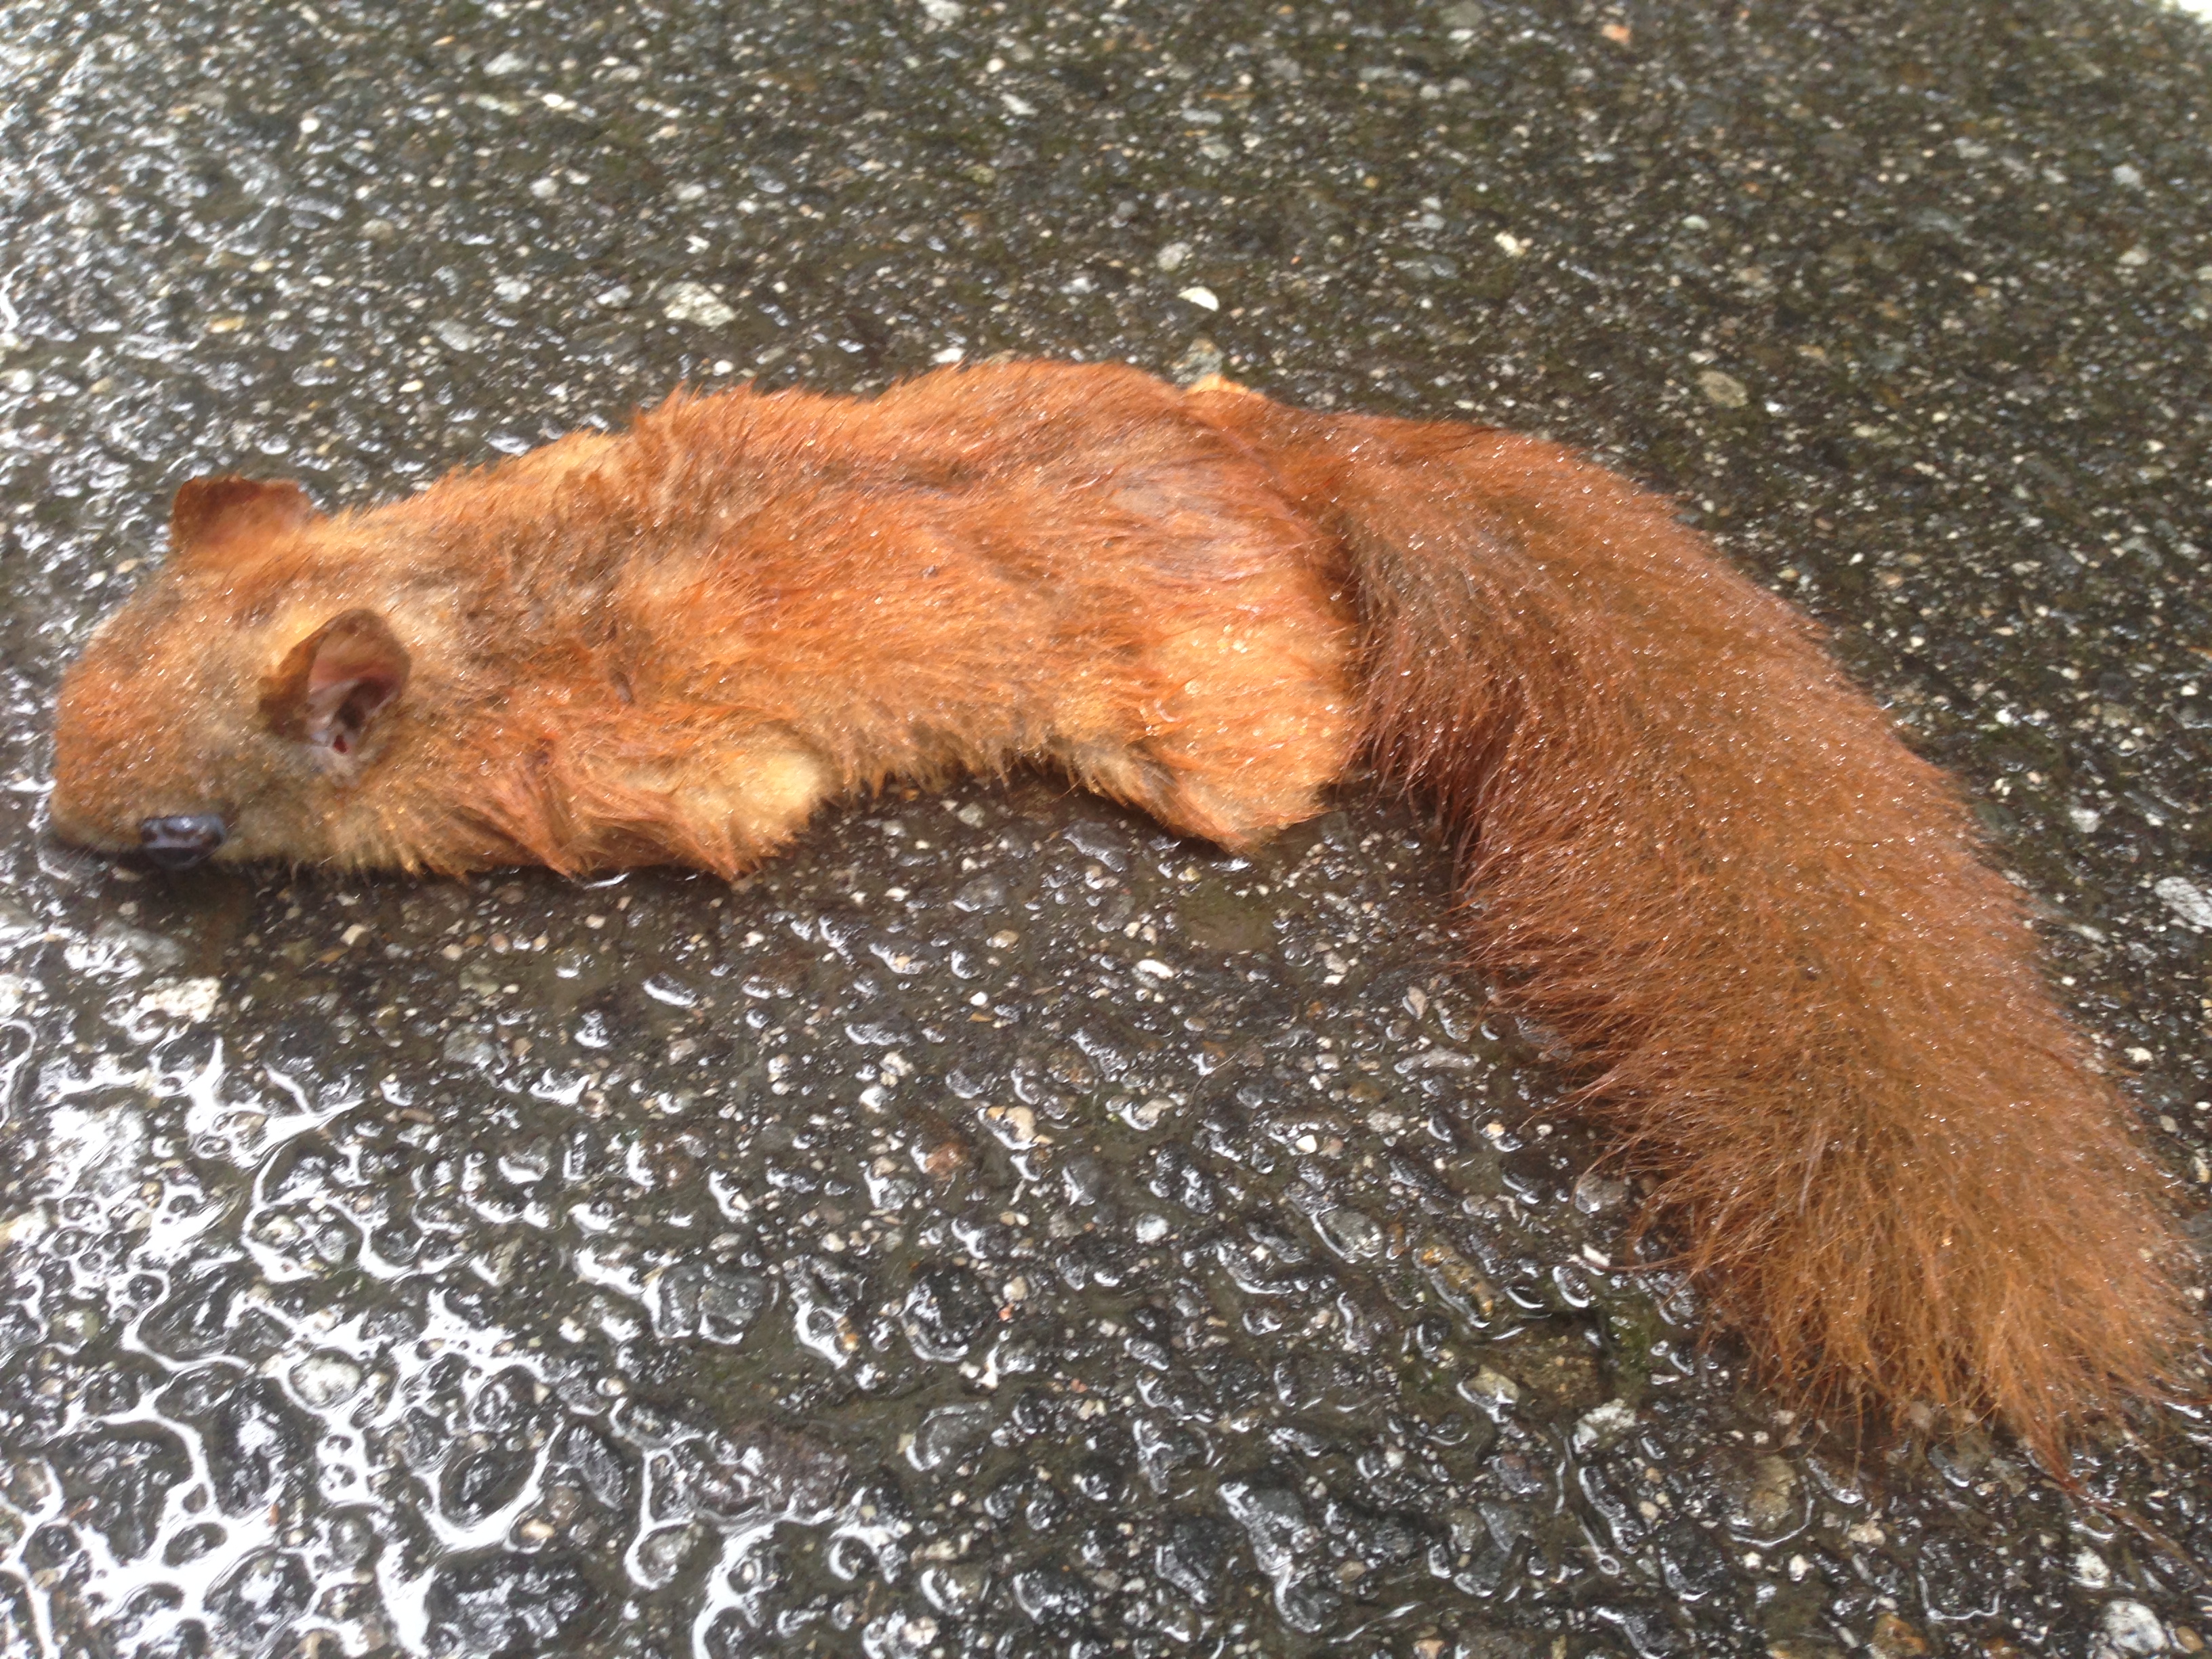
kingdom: Animalia
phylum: Chordata
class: Mammalia
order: Rodentia
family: Sciuridae
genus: Sciurus
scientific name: Sciurus vulgaris
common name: Eurasian red squirrel
